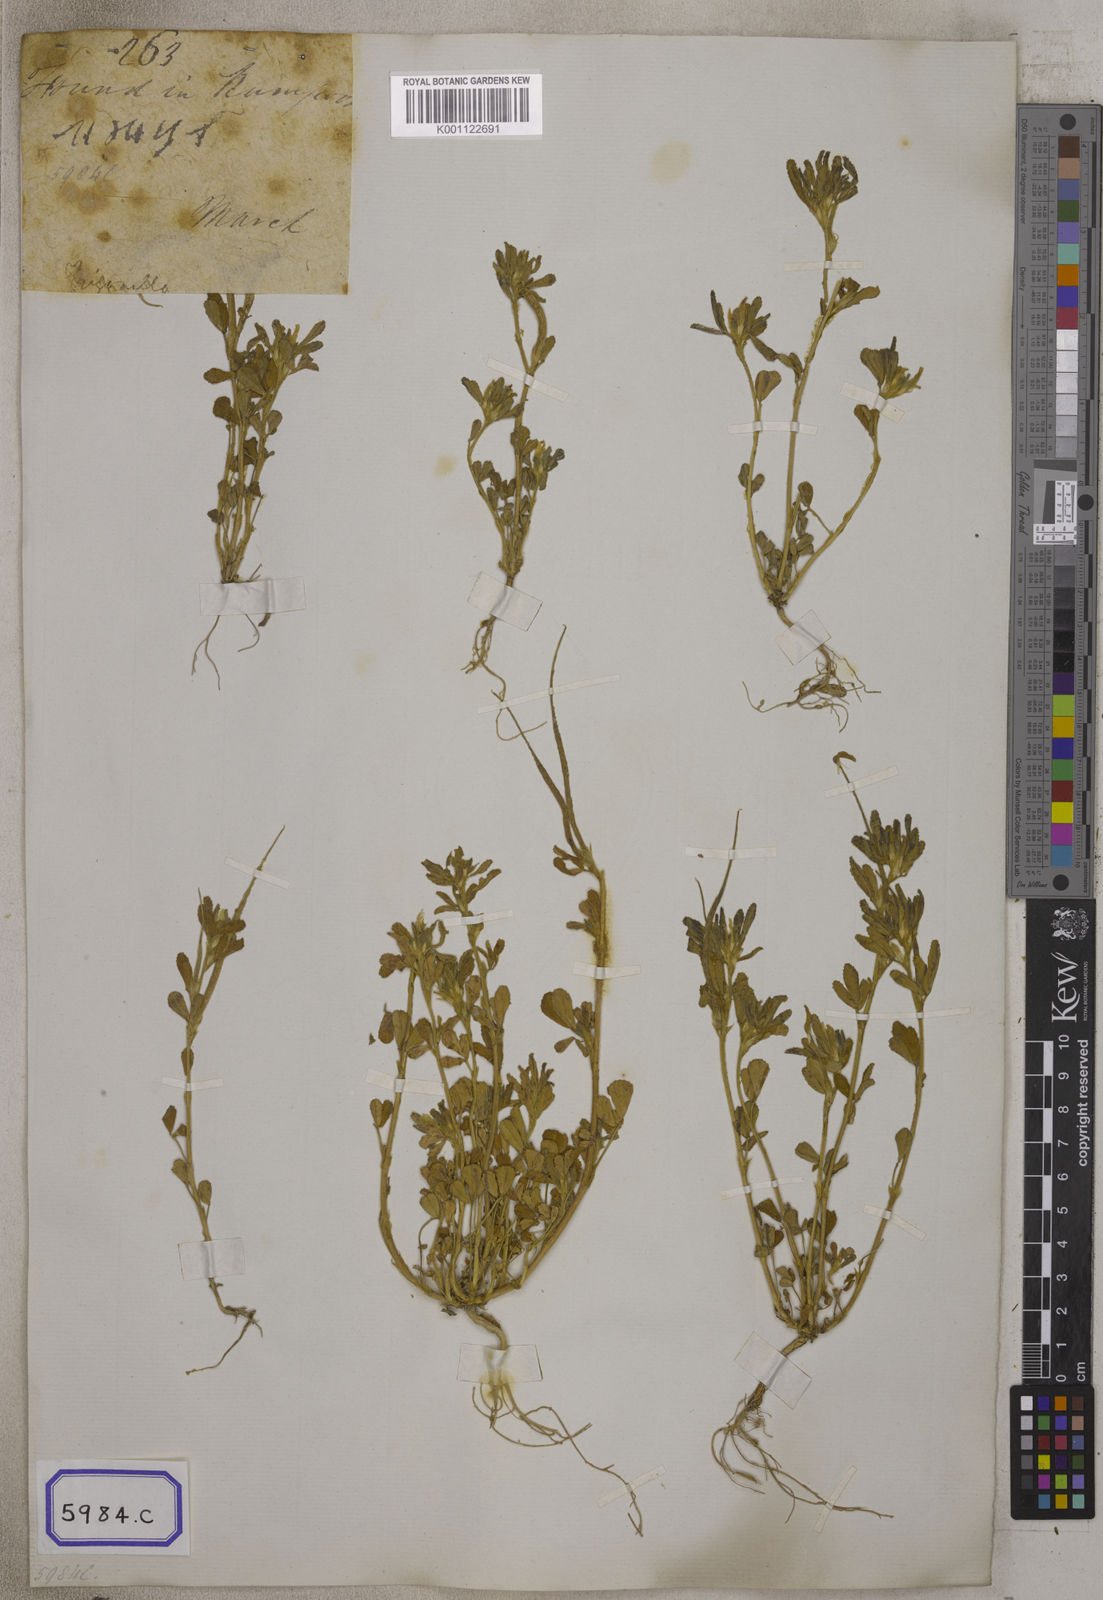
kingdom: Plantae
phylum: Tracheophyta
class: Magnoliopsida
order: Fabales
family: Fabaceae
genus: Trigonella
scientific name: Trigonella foenum-graecum
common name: Fenugreek
